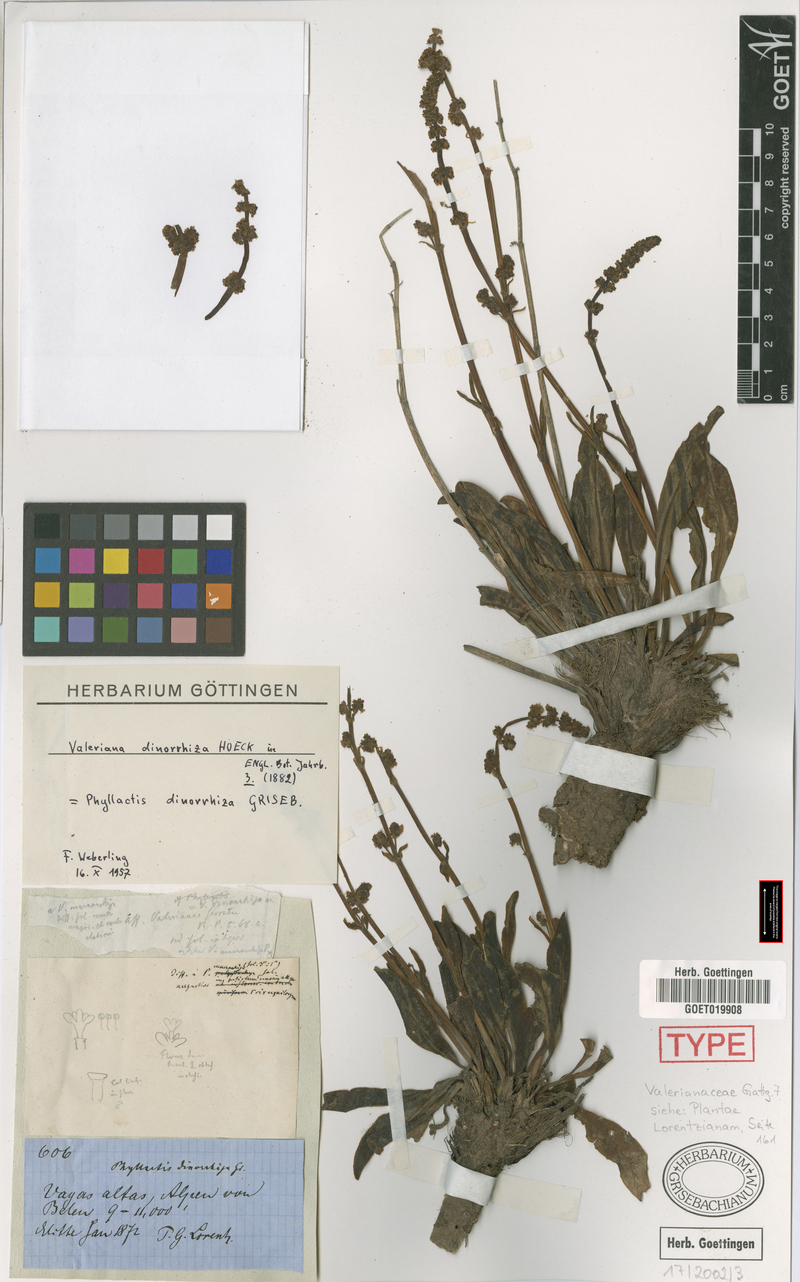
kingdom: Plantae
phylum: Tracheophyta
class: Magnoliopsida
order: Dipsacales
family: Caprifoliaceae
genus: Valeriana
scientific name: Valeriana dinorrhiza
